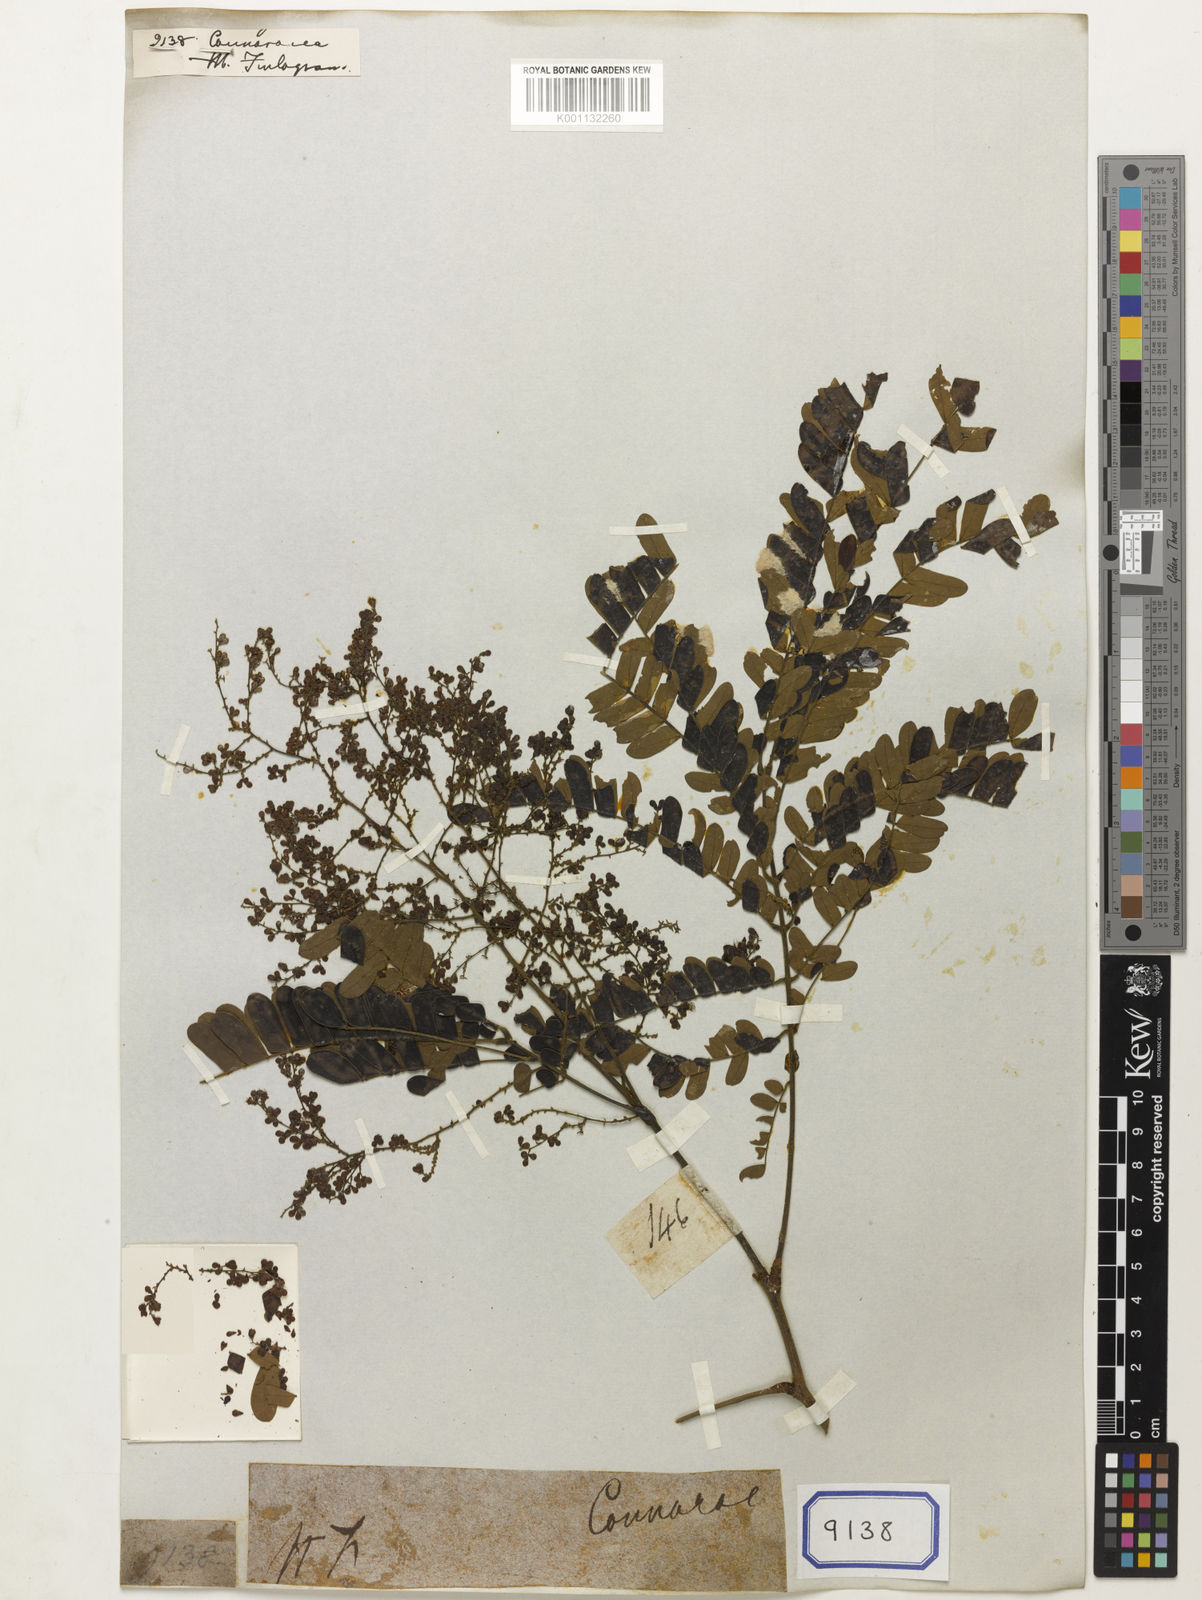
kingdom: Plantae
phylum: Tracheophyta
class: Magnoliopsida
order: Oxalidales
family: Connaraceae
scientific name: Connaraceae
